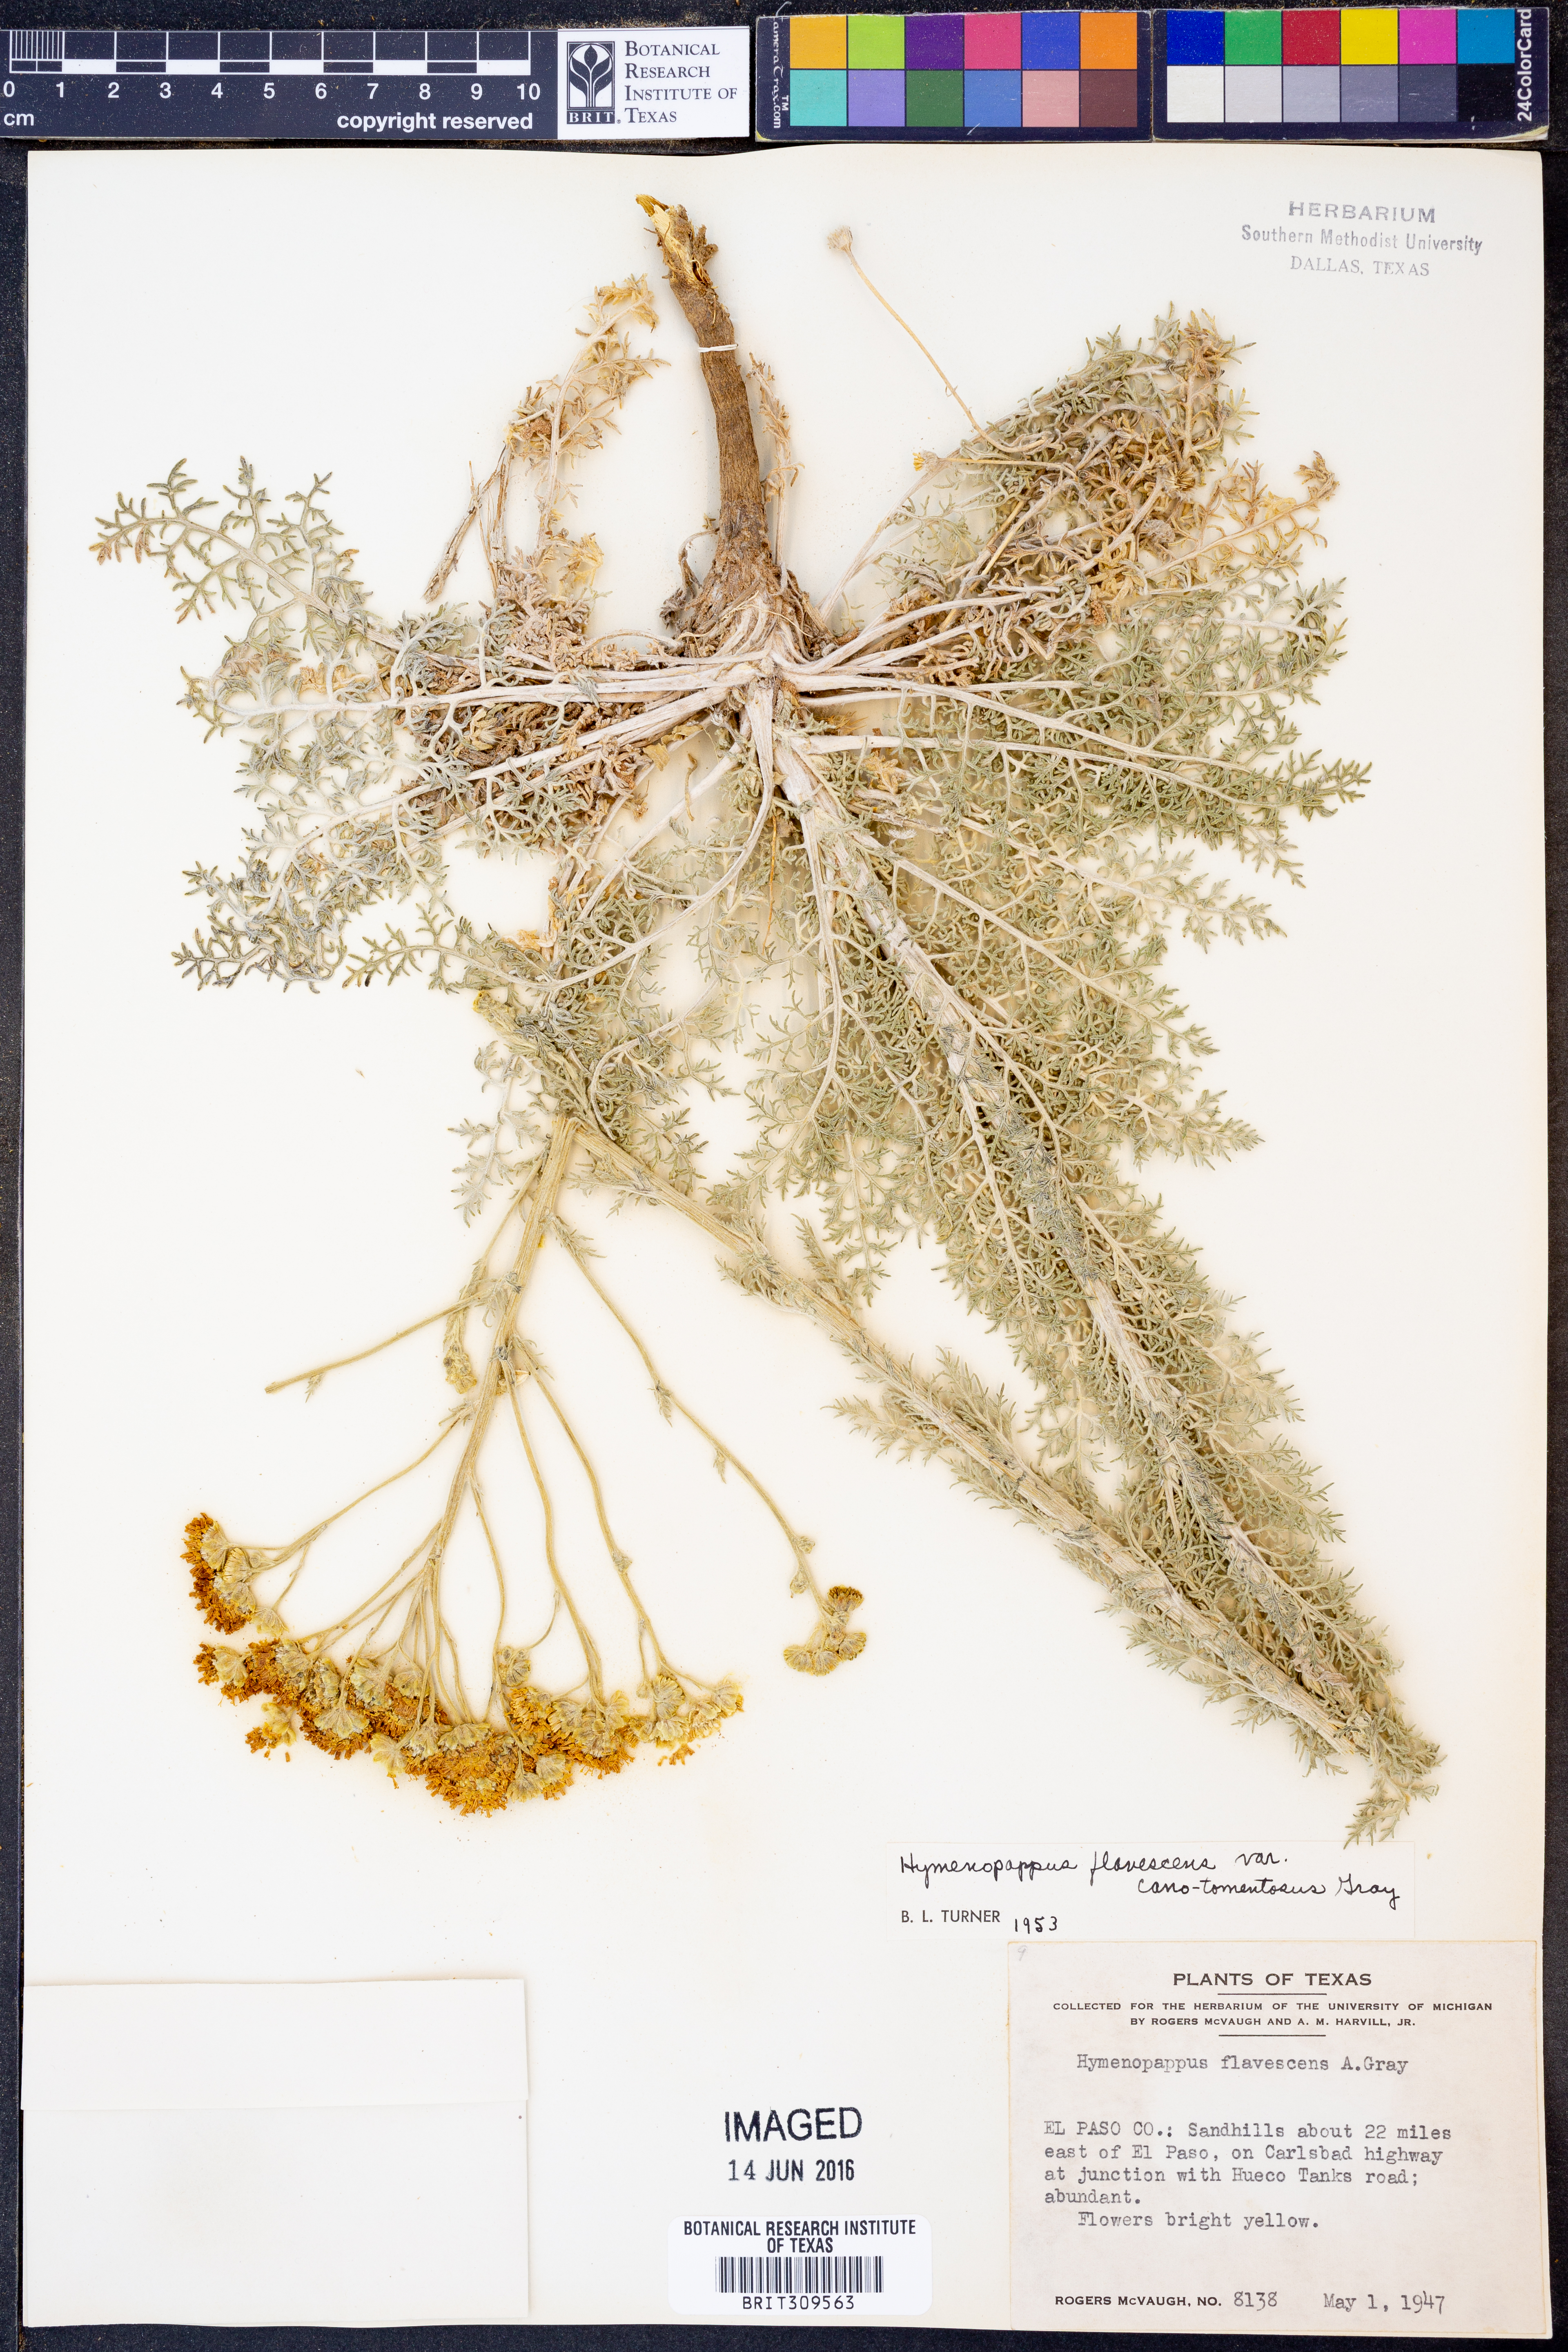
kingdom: Plantae
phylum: Tracheophyta
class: Magnoliopsida
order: Asterales
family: Asteraceae
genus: Hymenopappus
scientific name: Hymenopappus flavescens
